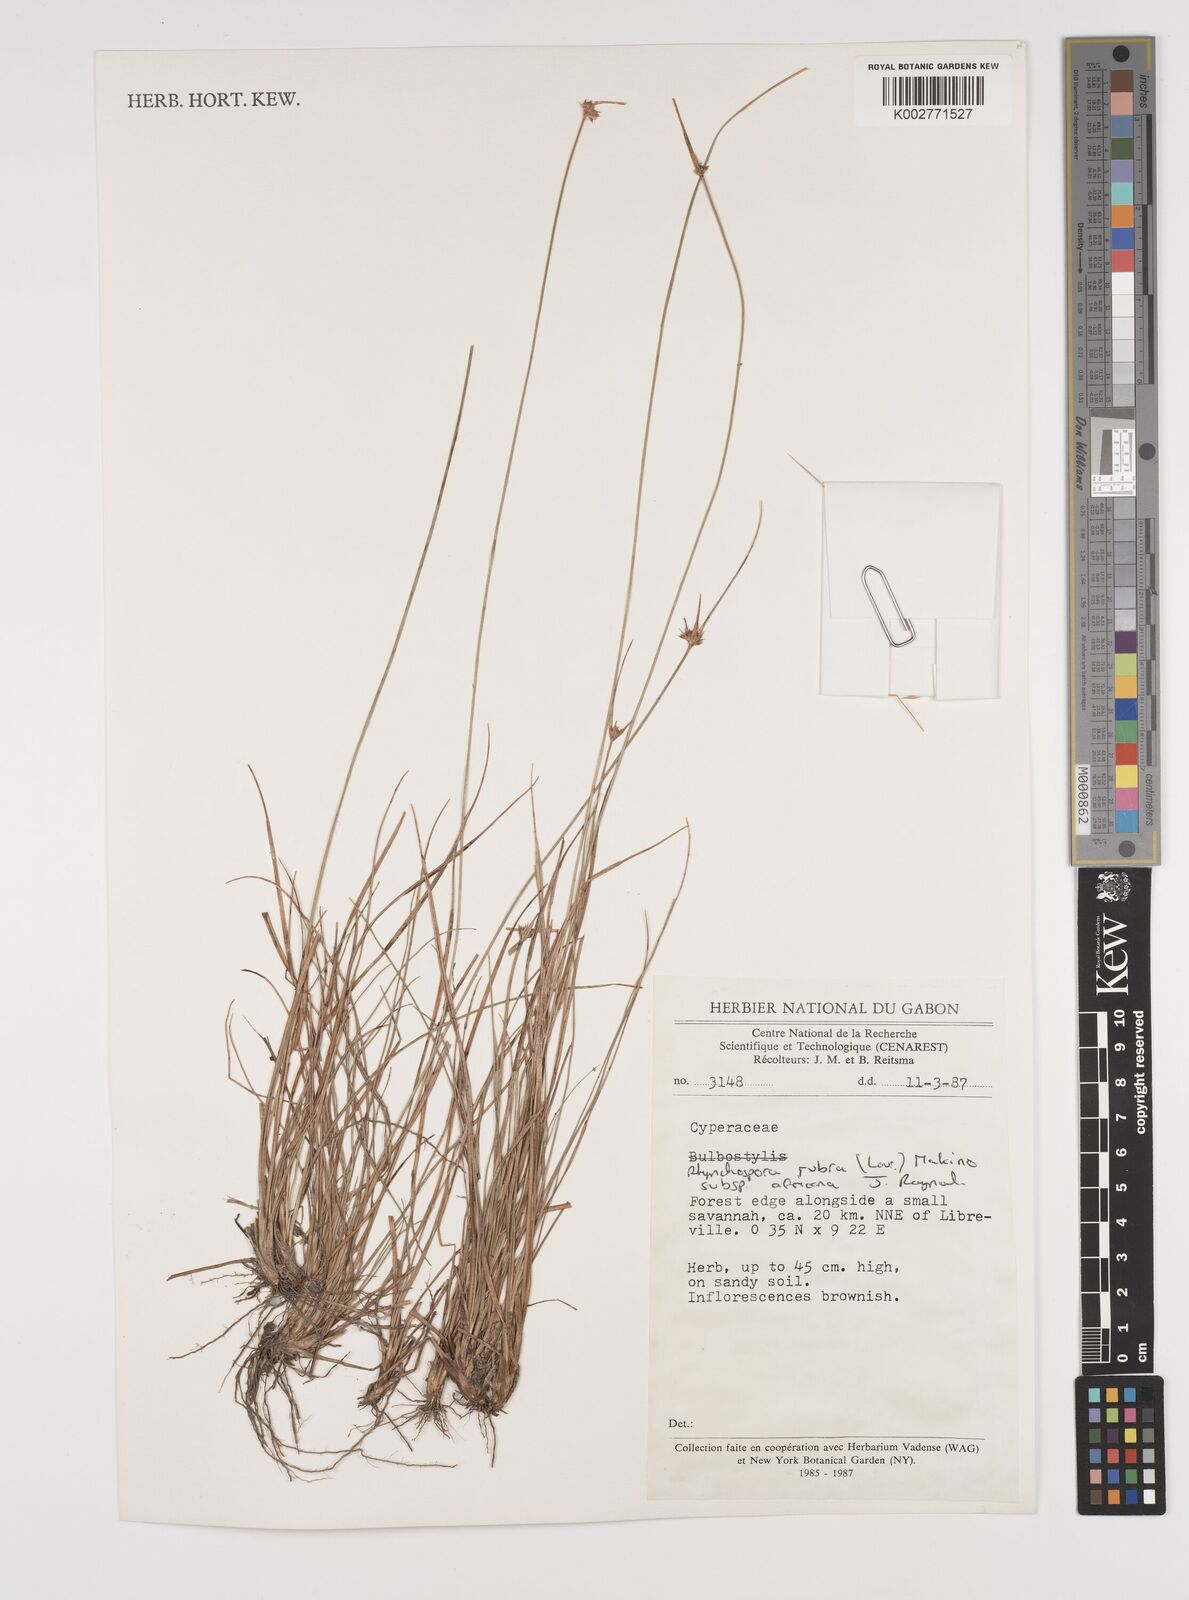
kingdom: Plantae
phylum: Tracheophyta
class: Liliopsida
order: Poales
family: Cyperaceae
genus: Rhynchospora
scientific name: Rhynchospora rubra
